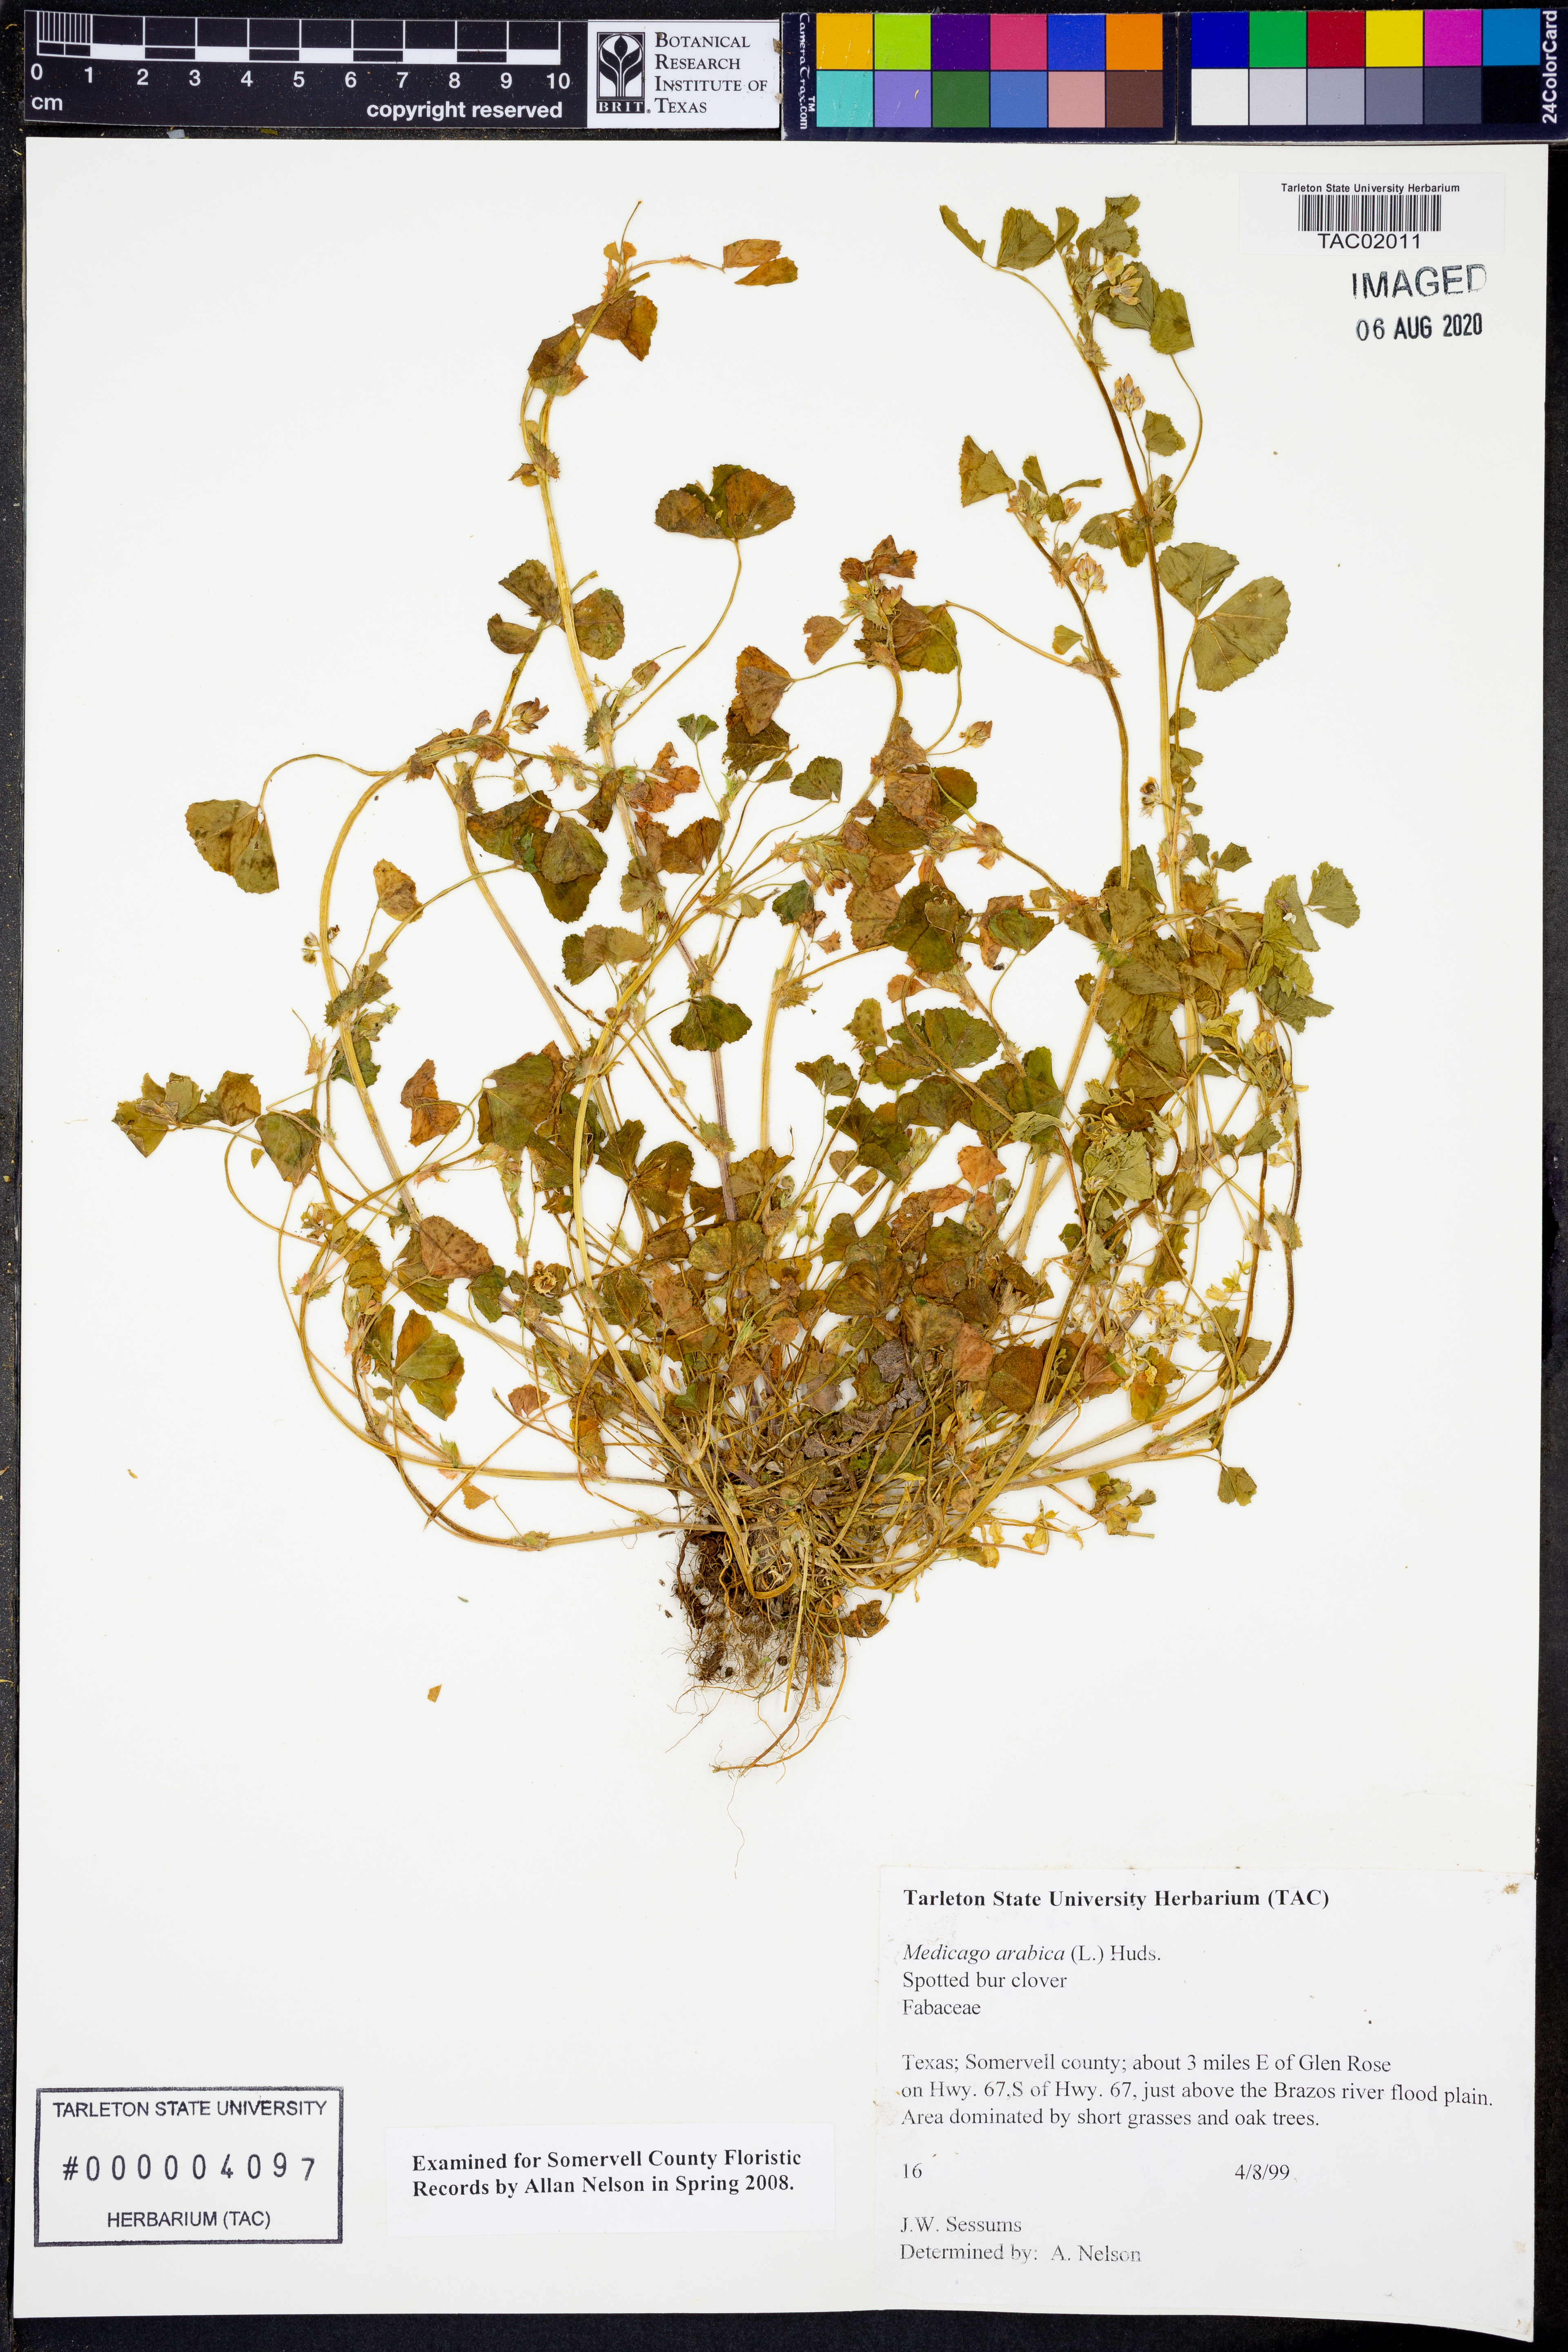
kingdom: Plantae
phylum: Tracheophyta
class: Magnoliopsida
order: Fabales
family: Fabaceae
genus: Medicago
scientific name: Medicago arabica
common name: Spotted medick
